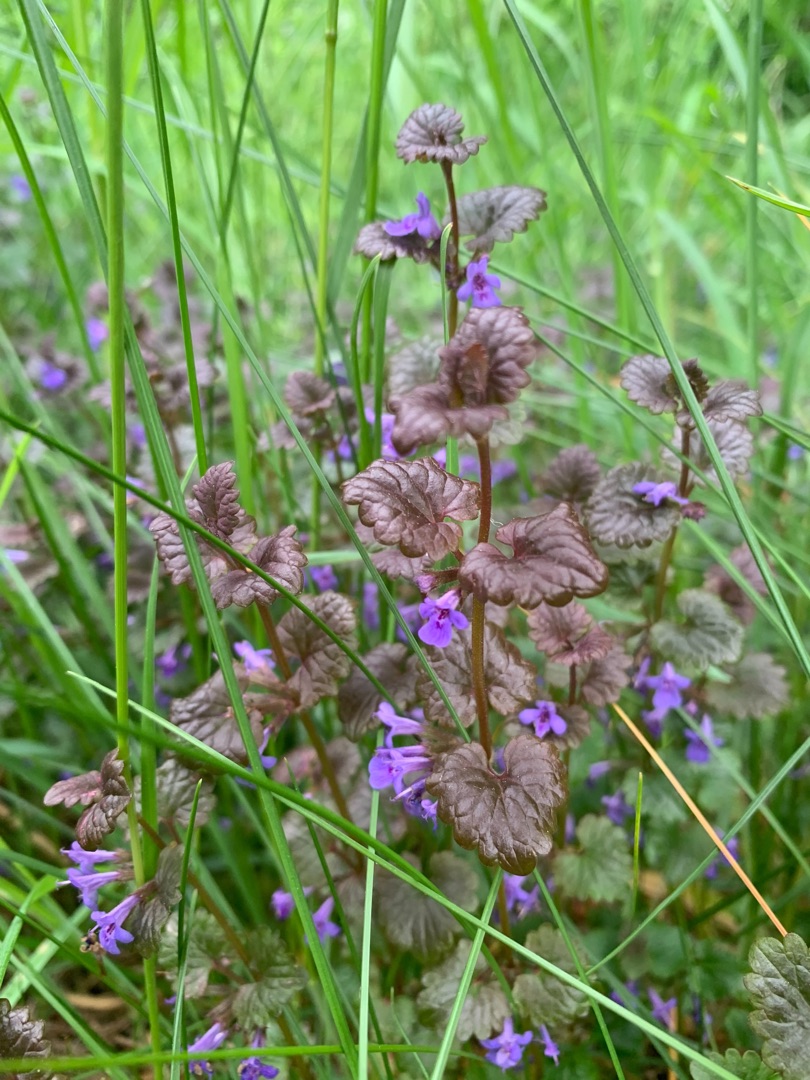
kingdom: Plantae
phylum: Tracheophyta
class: Magnoliopsida
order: Lamiales
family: Lamiaceae
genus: Glechoma
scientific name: Glechoma hederacea
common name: Korsknap
